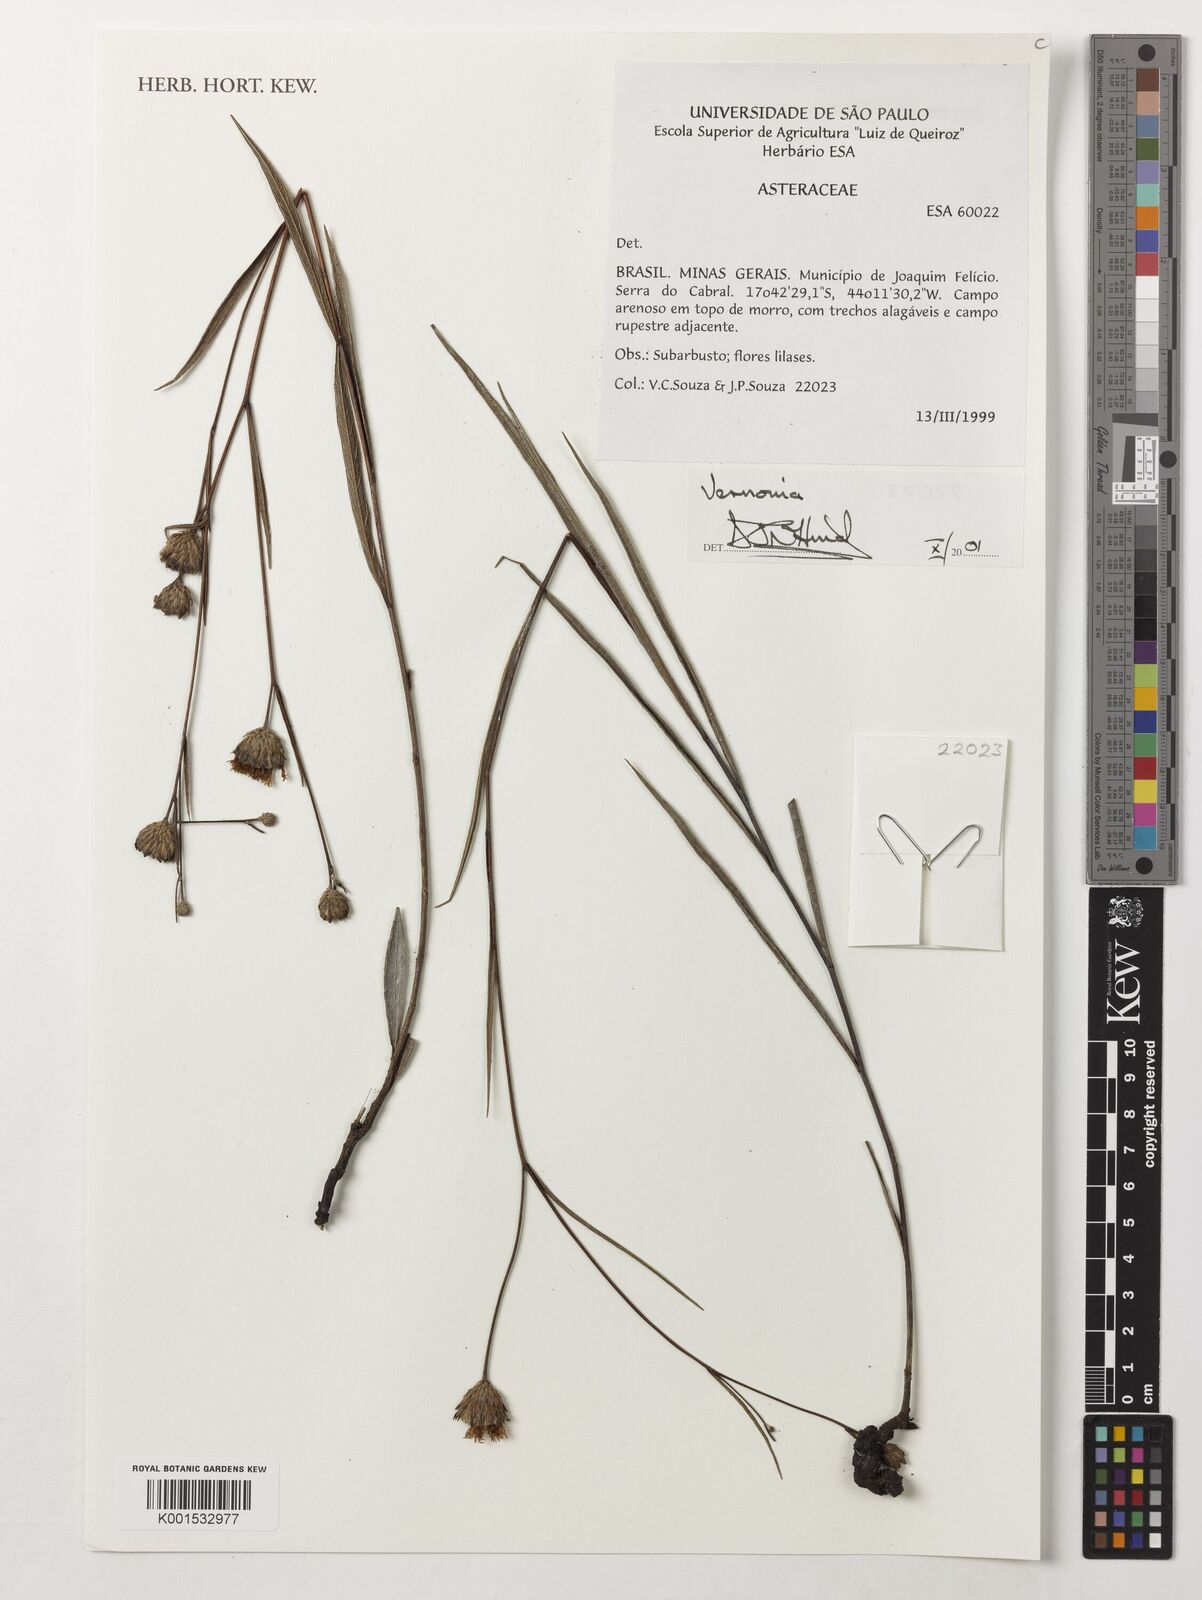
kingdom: Plantae
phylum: Tracheophyta
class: Magnoliopsida
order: Asterales
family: Asteraceae
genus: Vernonia
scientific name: Vernonia
